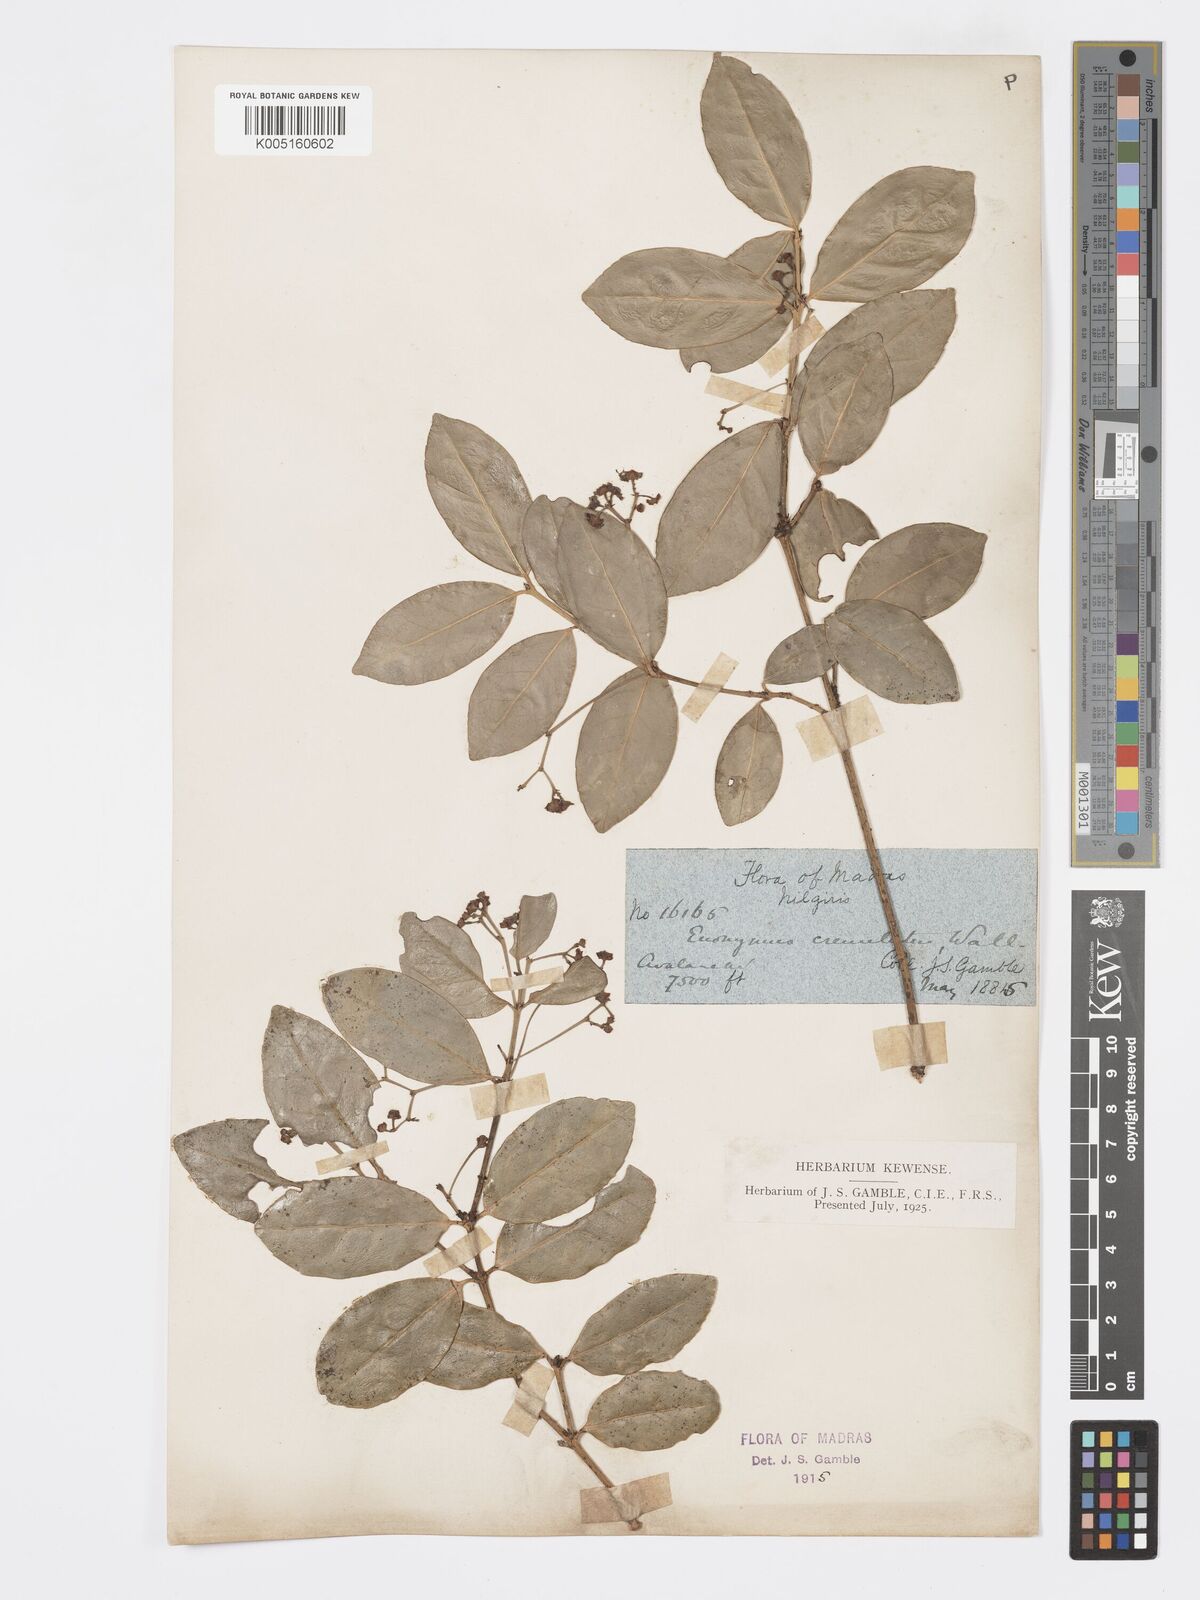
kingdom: Plantae
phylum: Tracheophyta
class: Magnoliopsida
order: Celastrales
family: Celastraceae
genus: Euonymus
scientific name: Euonymus crenulatus
